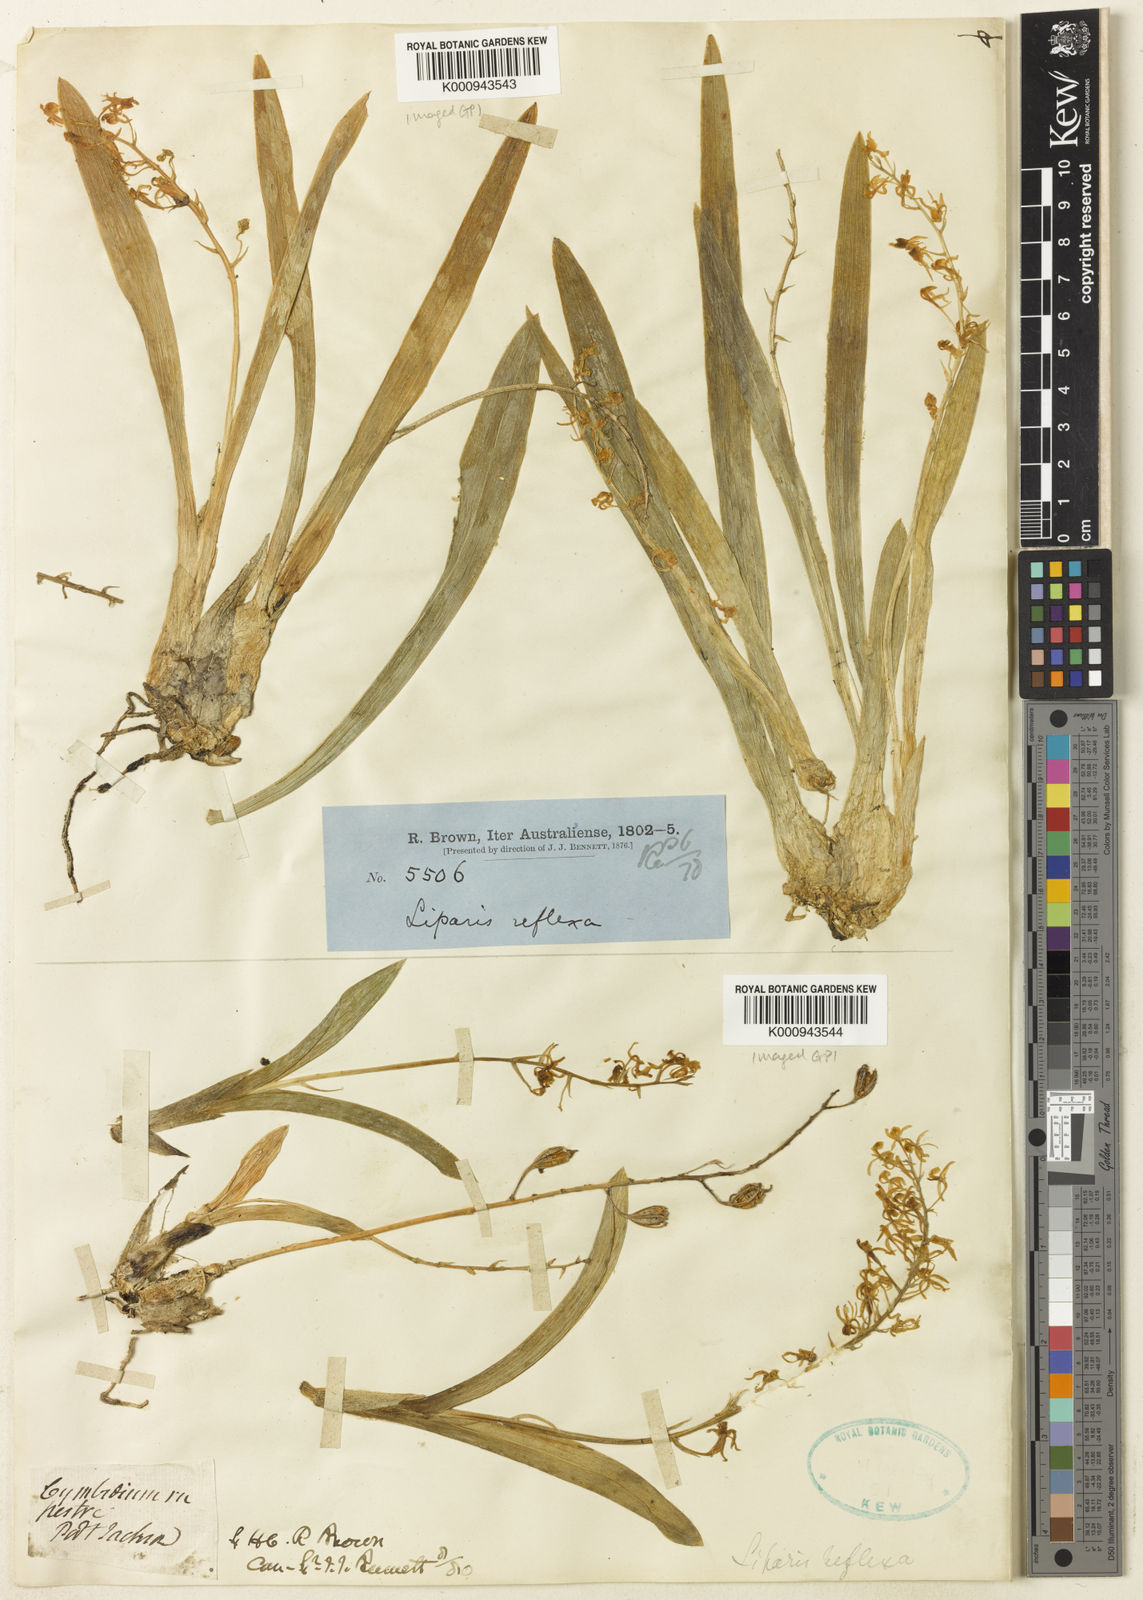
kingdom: Plantae
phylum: Tracheophyta
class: Liliopsida
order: Asparagales
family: Orchidaceae
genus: Liparis
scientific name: Liparis reflexa
